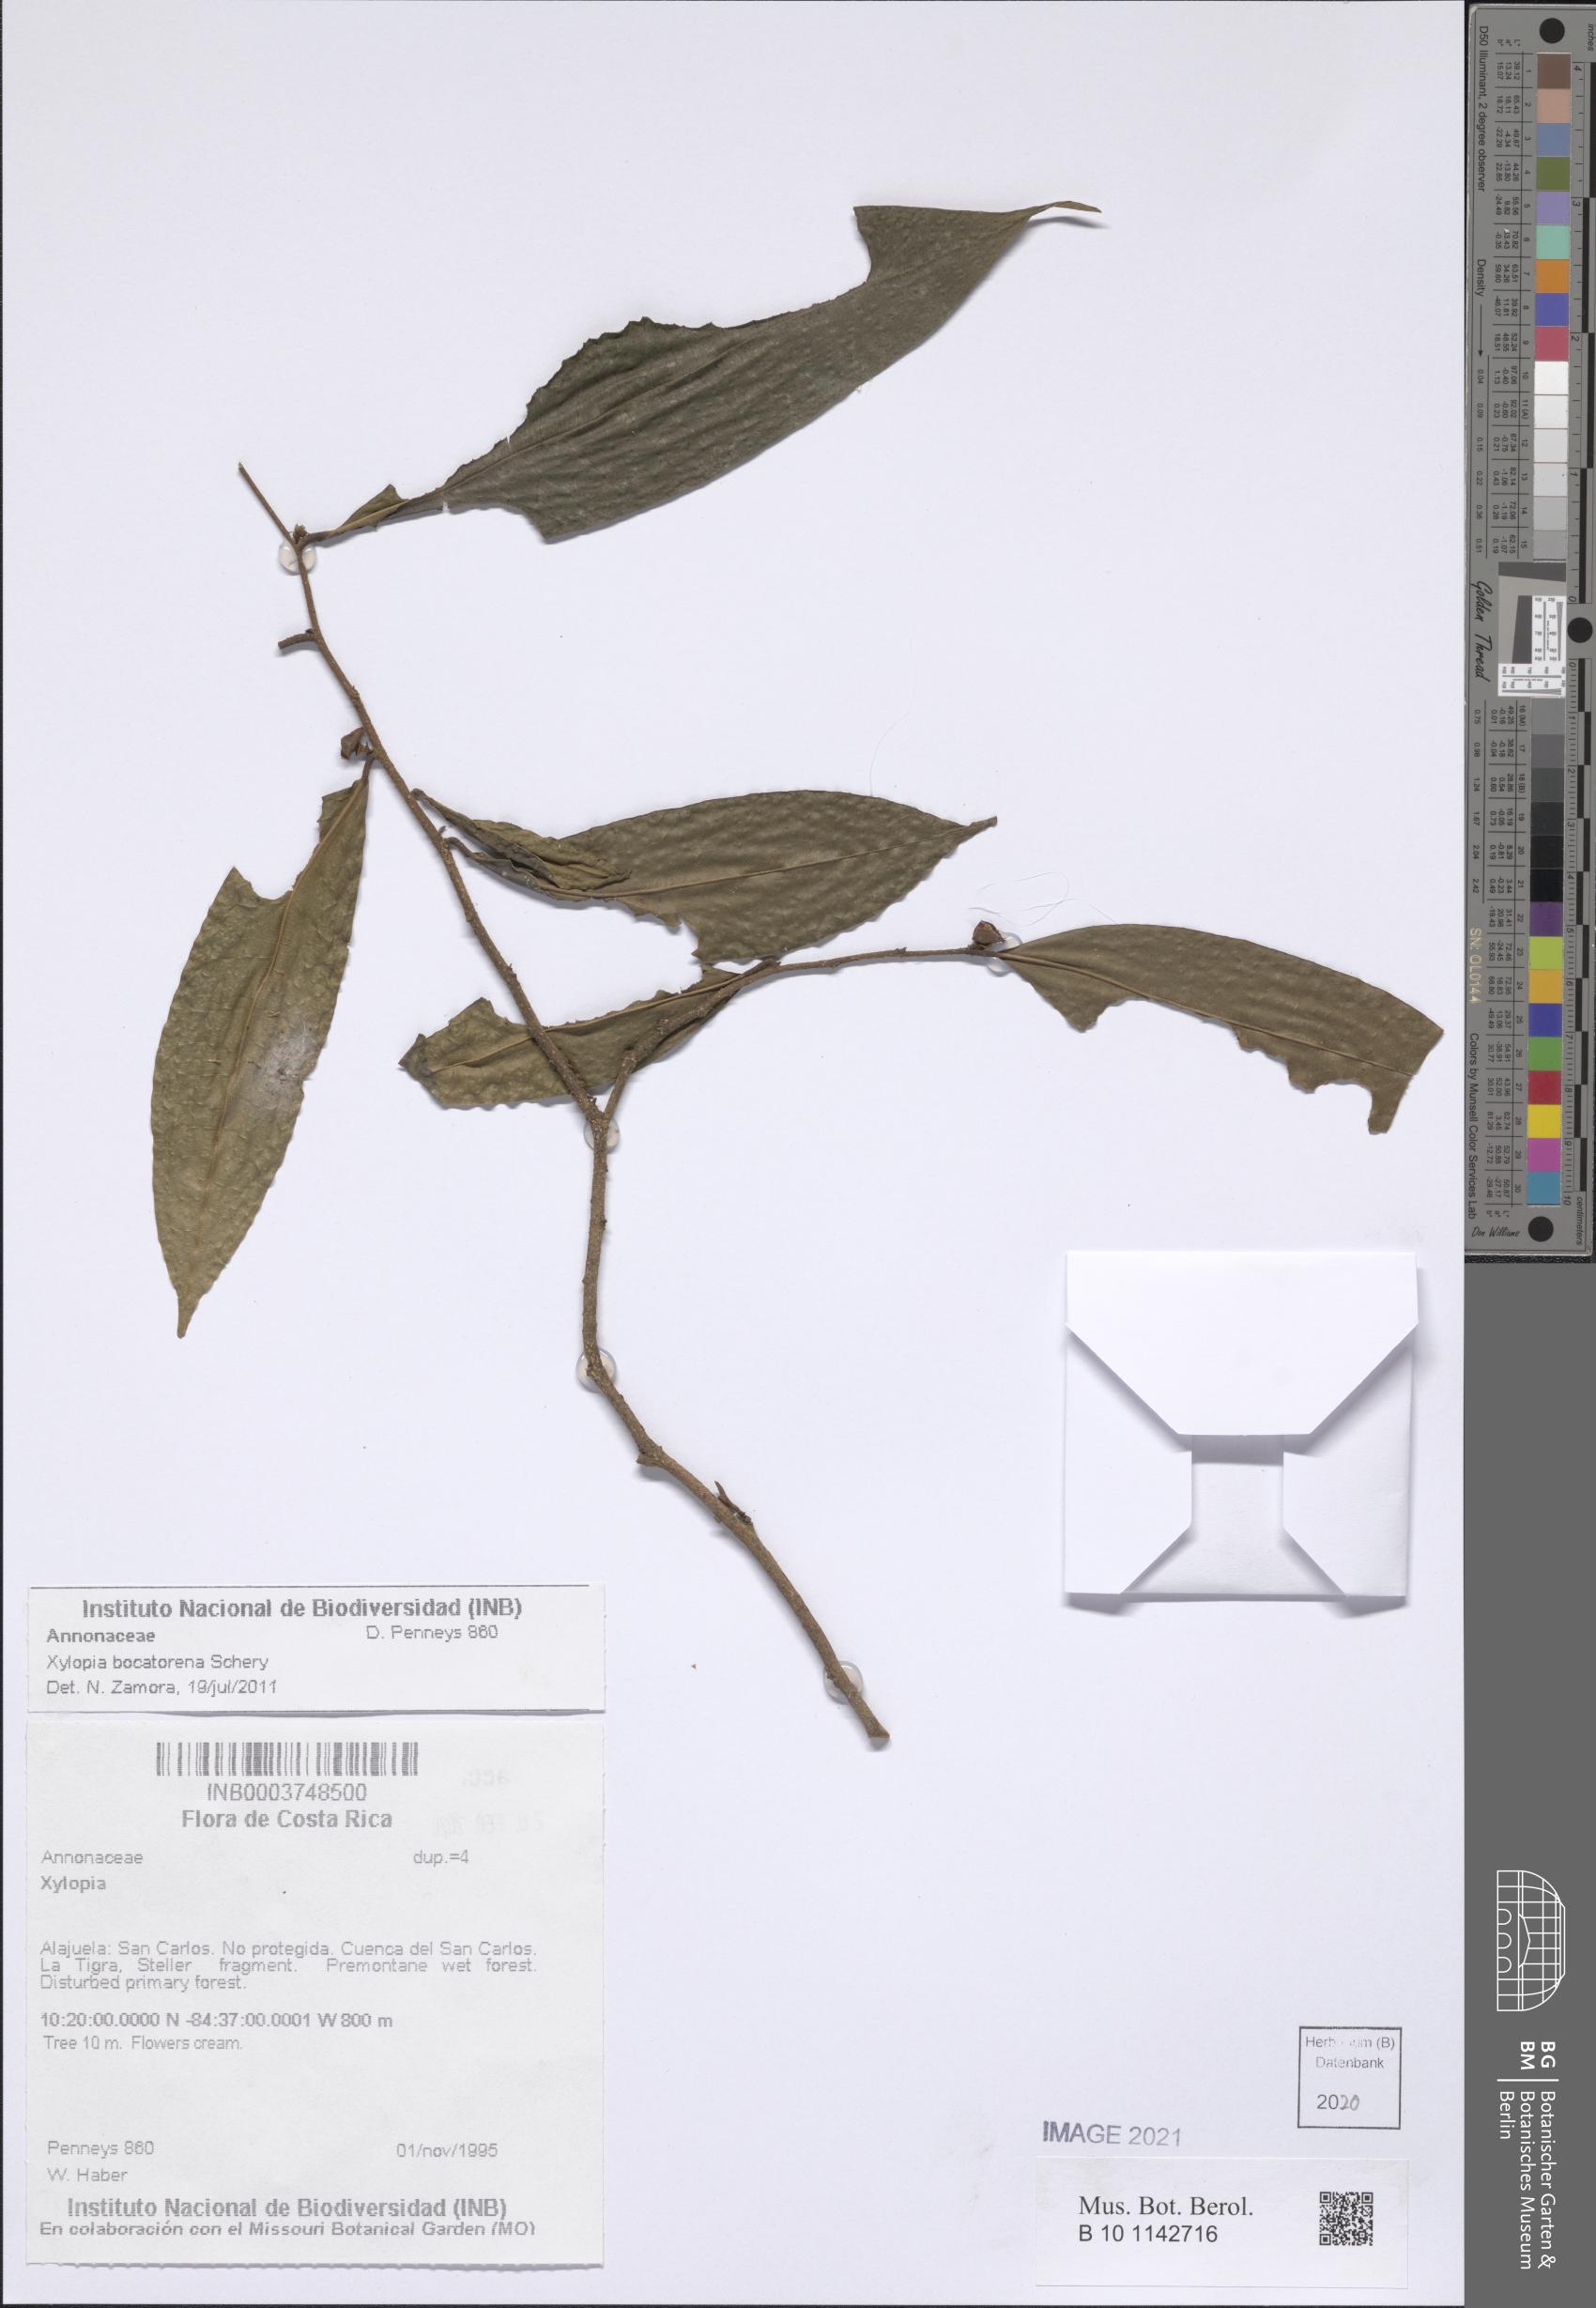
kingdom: Plantae
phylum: Tracheophyta
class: Magnoliopsida
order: Magnoliales
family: Annonaceae
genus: Xylopia
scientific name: Xylopia bocatorena
